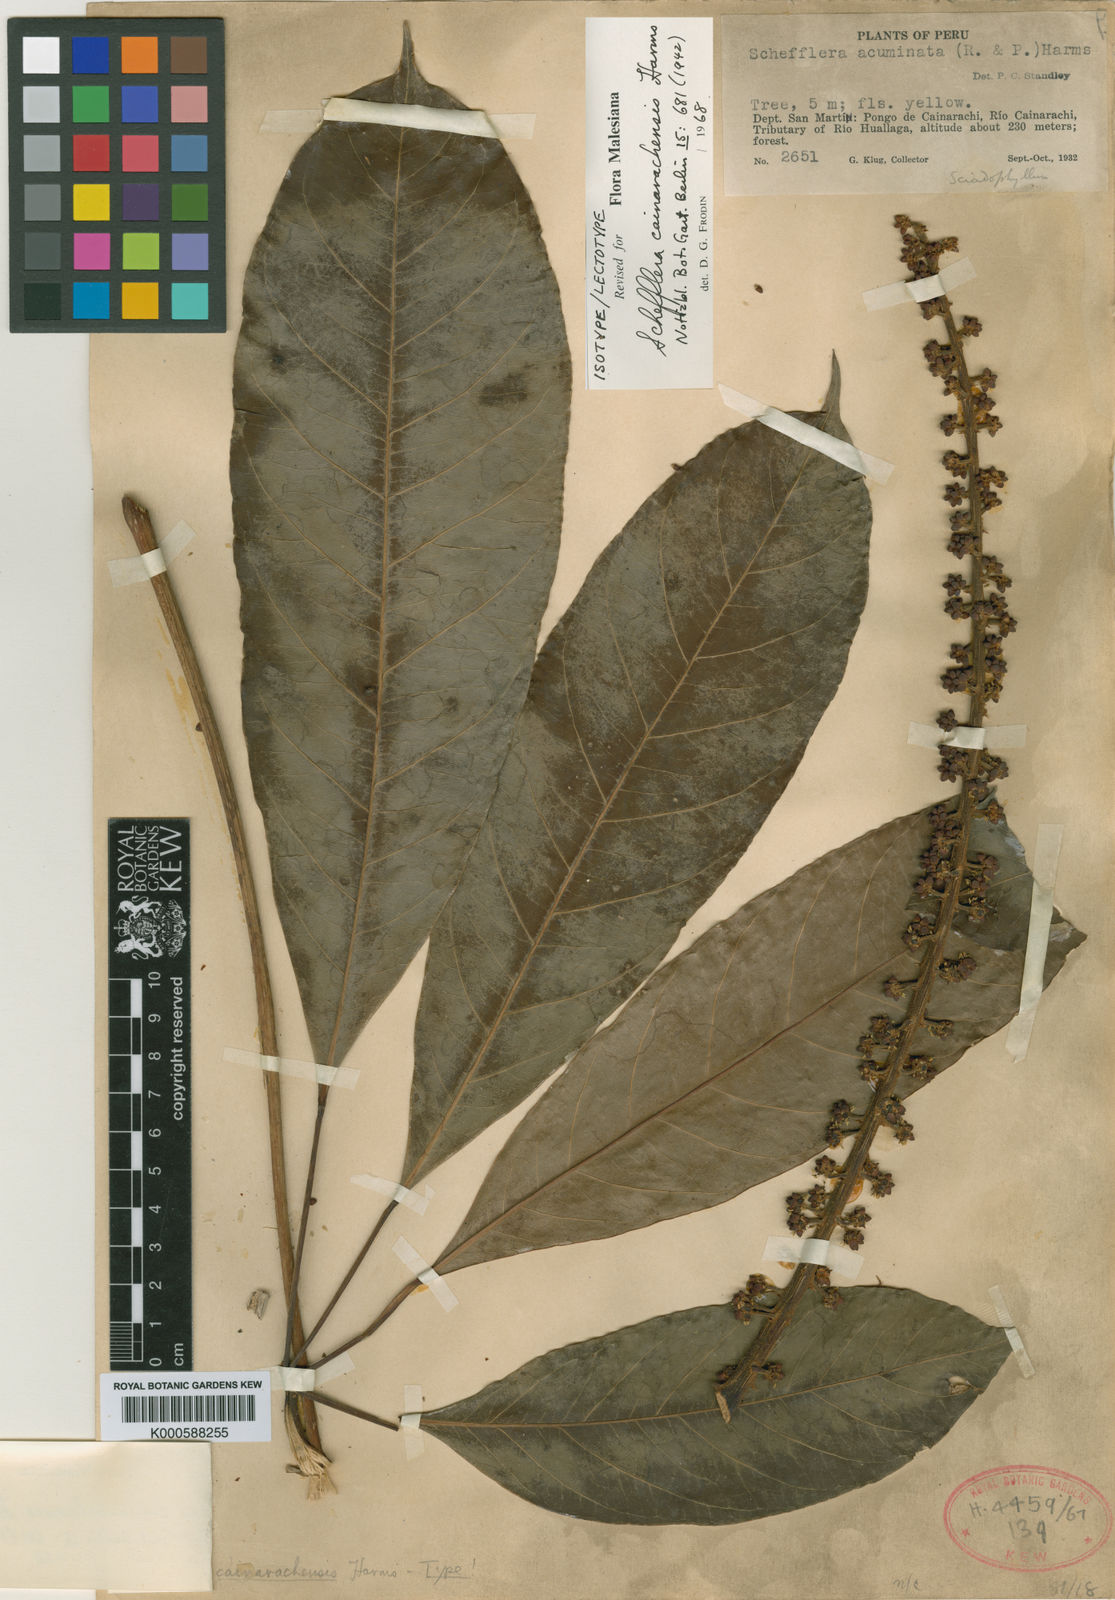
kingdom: Plantae
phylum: Tracheophyta
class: Magnoliopsida
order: Apiales
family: Araliaceae
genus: Sciodaphyllum
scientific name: Sciodaphyllum sprucei
